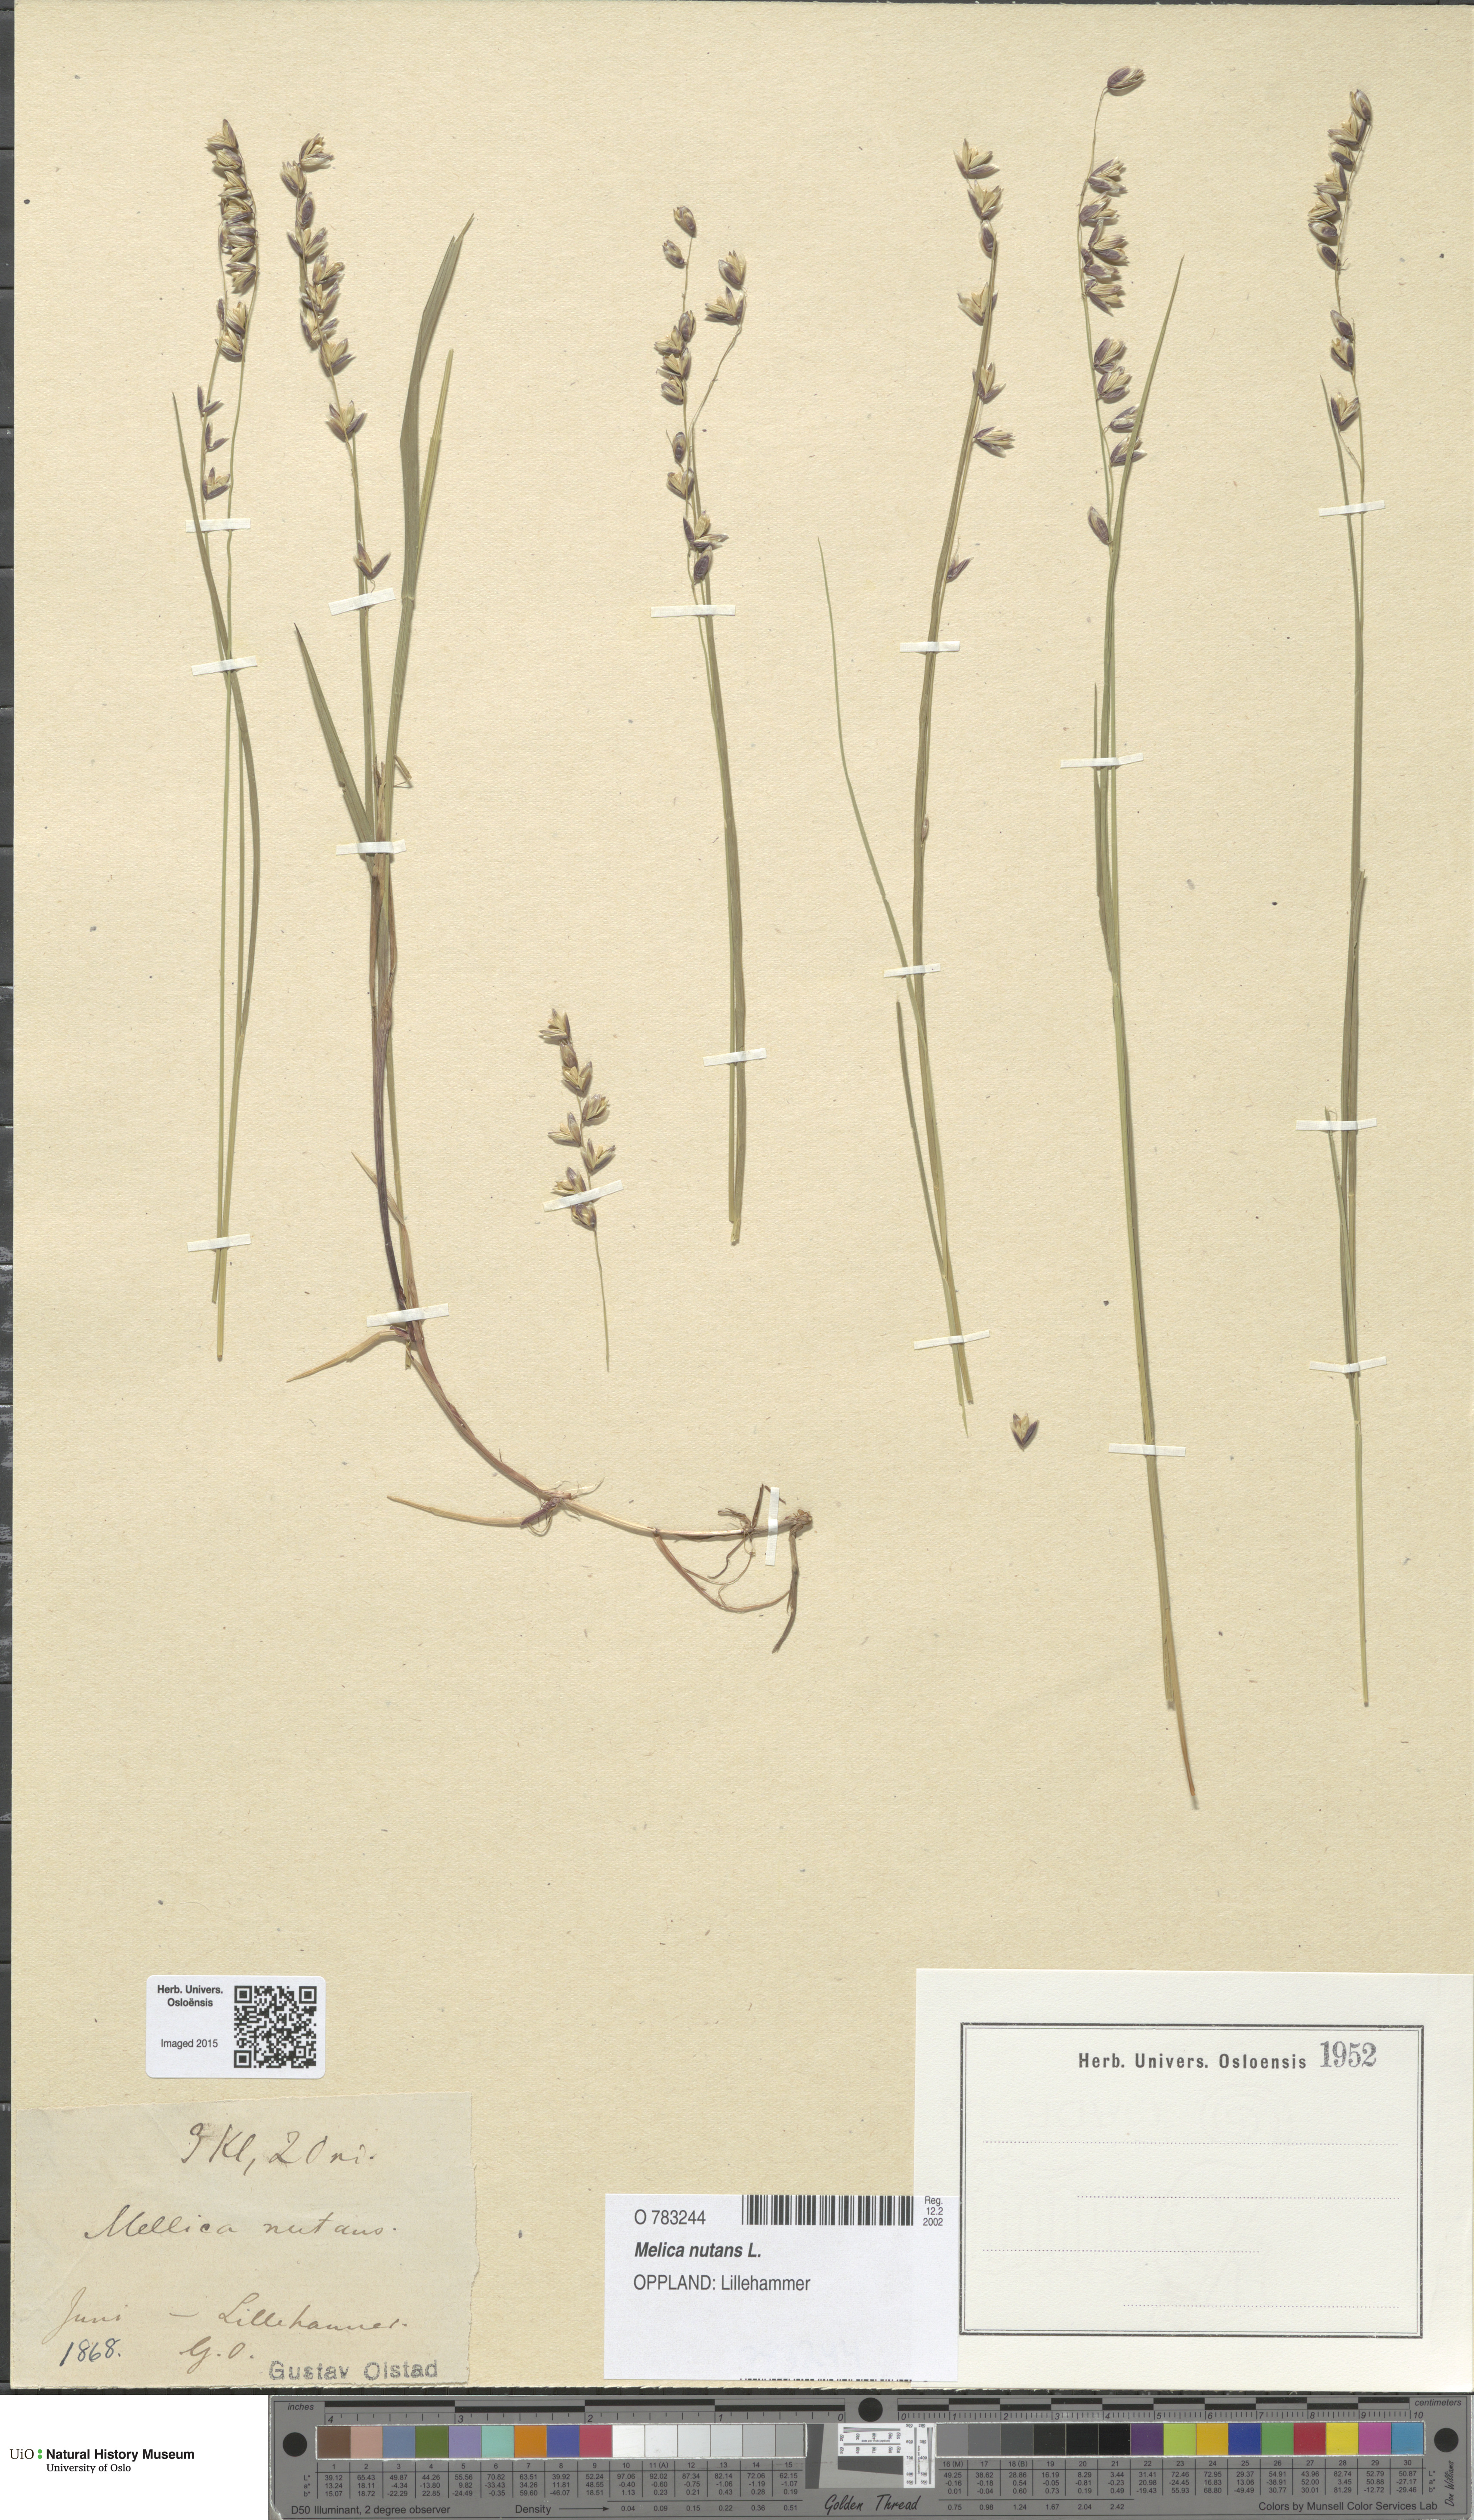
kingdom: Plantae
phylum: Tracheophyta
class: Liliopsida
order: Poales
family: Poaceae
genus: Melica
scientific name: Melica nutans
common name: Mountain melick
